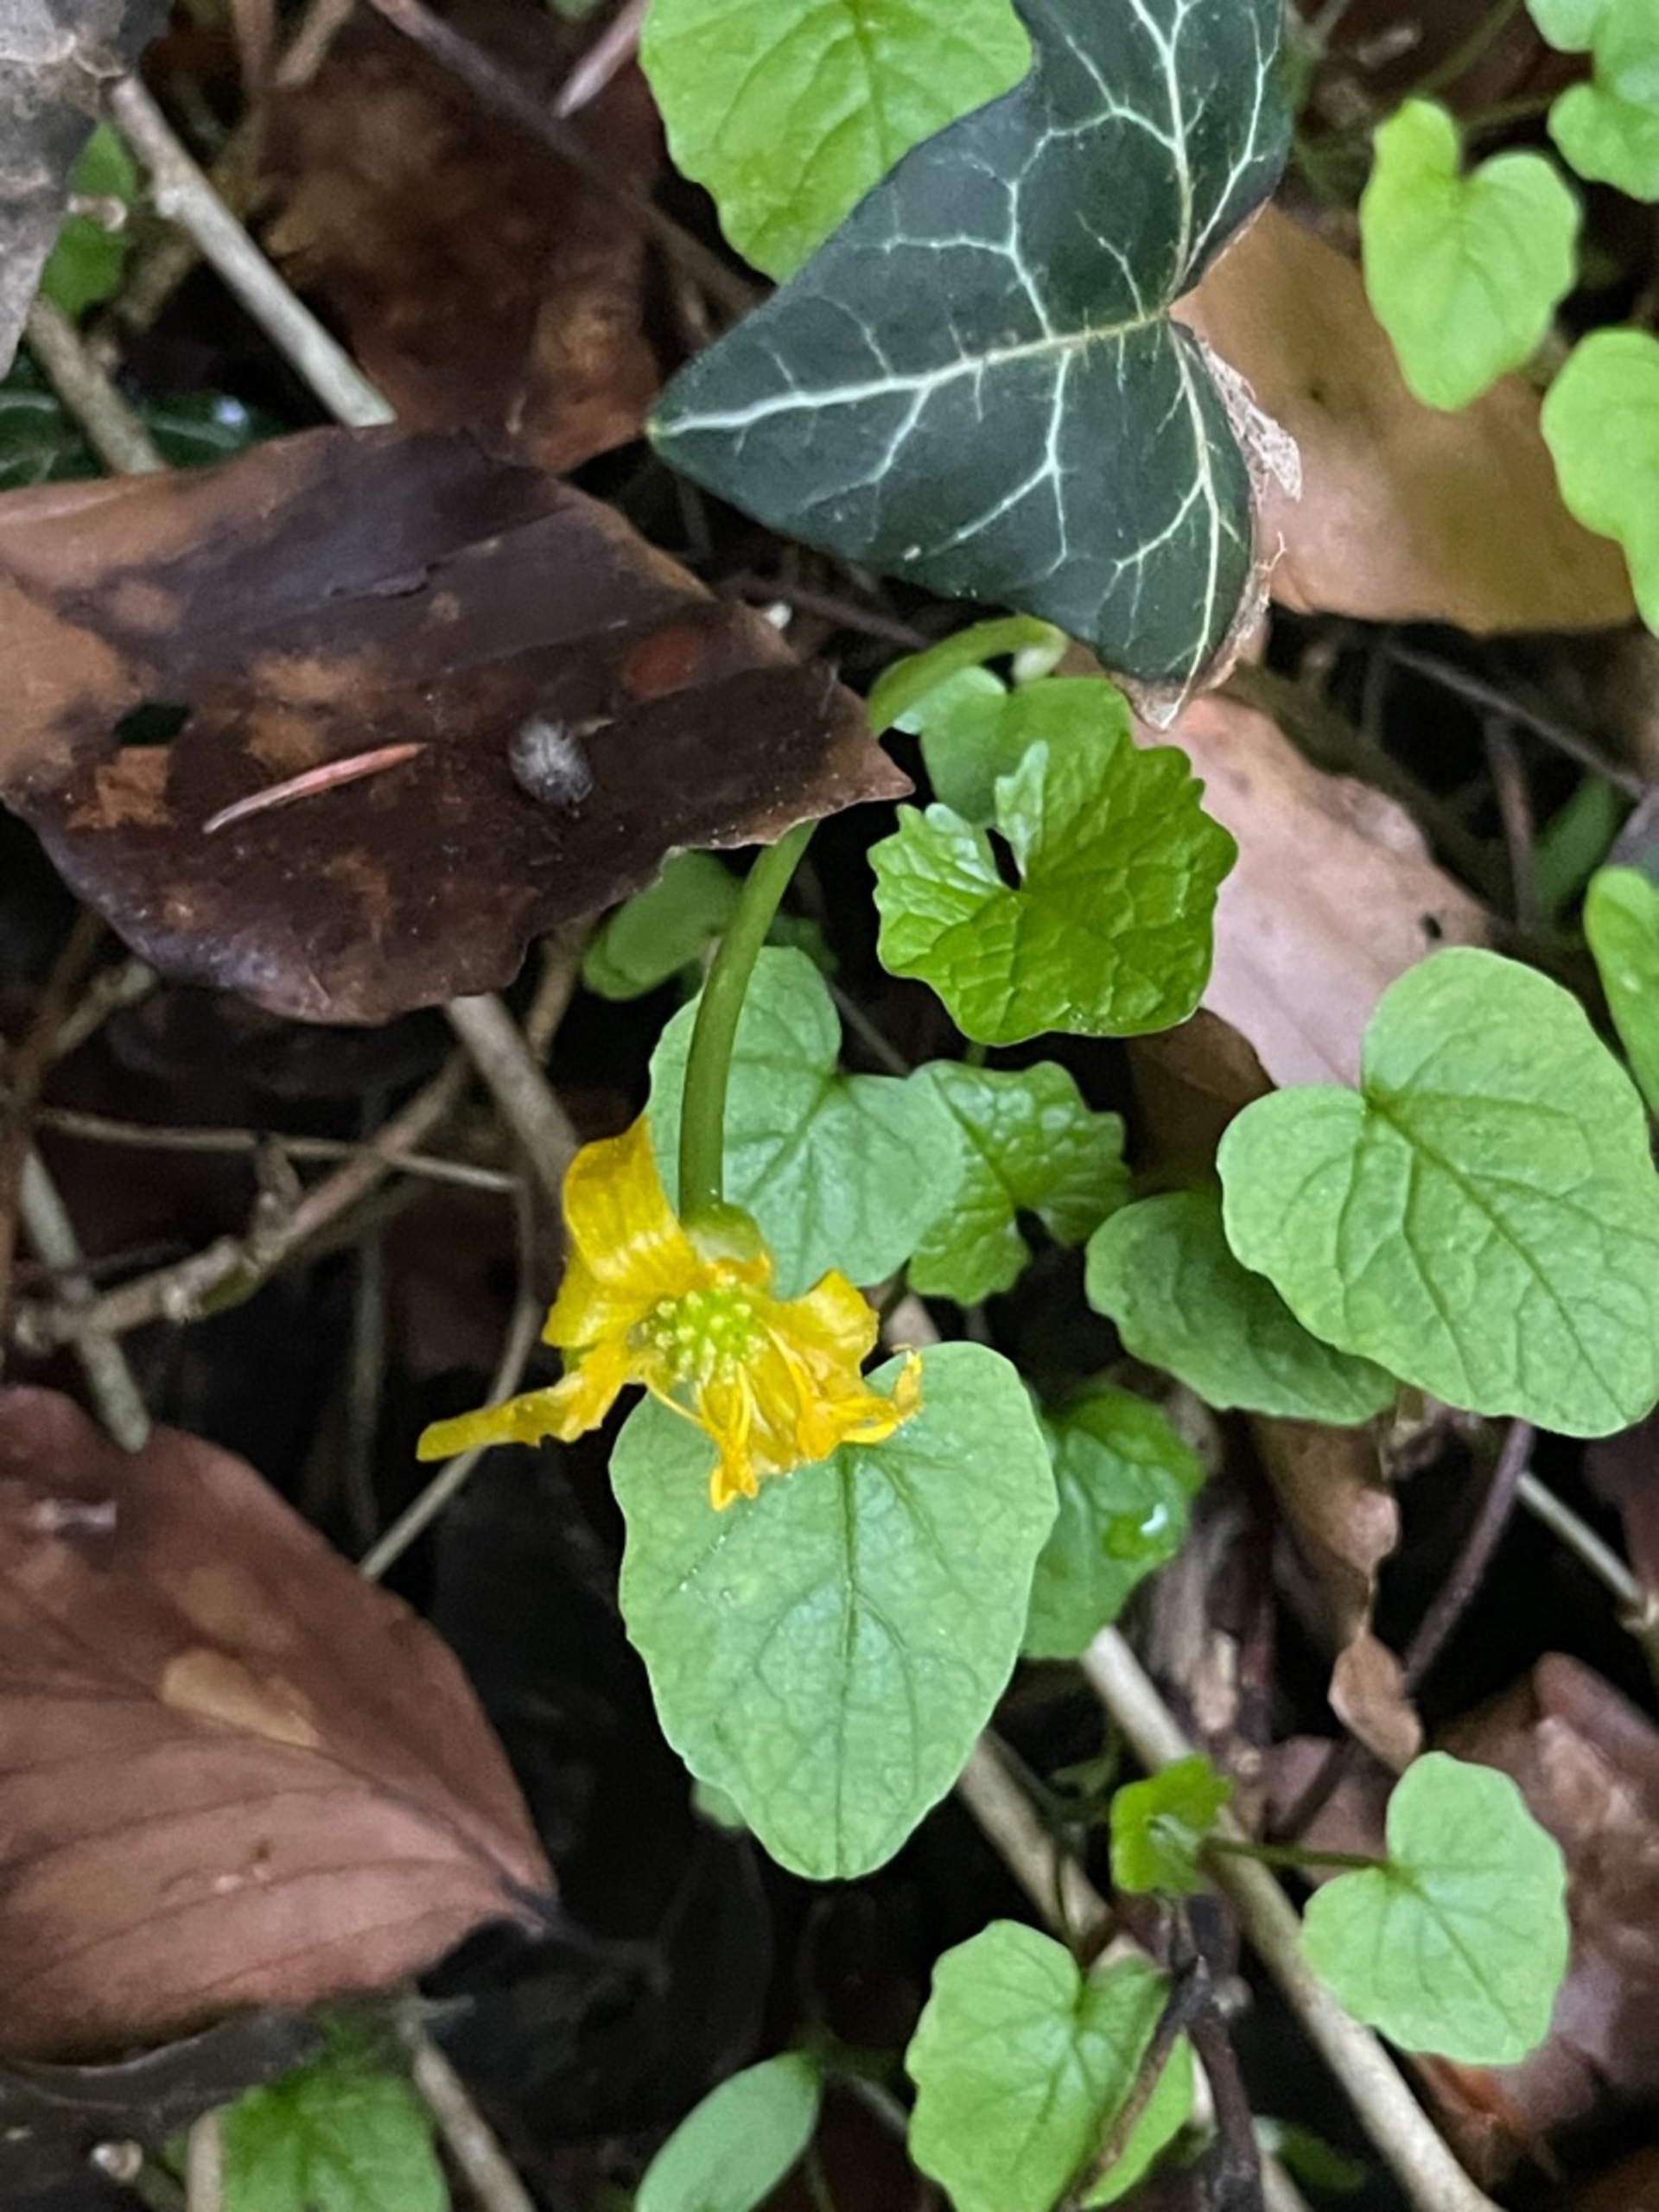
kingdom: Plantae
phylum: Tracheophyta
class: Magnoliopsida
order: Ranunculales
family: Ranunculaceae
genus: Ficaria
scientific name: Ficaria verna
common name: Vorterod
